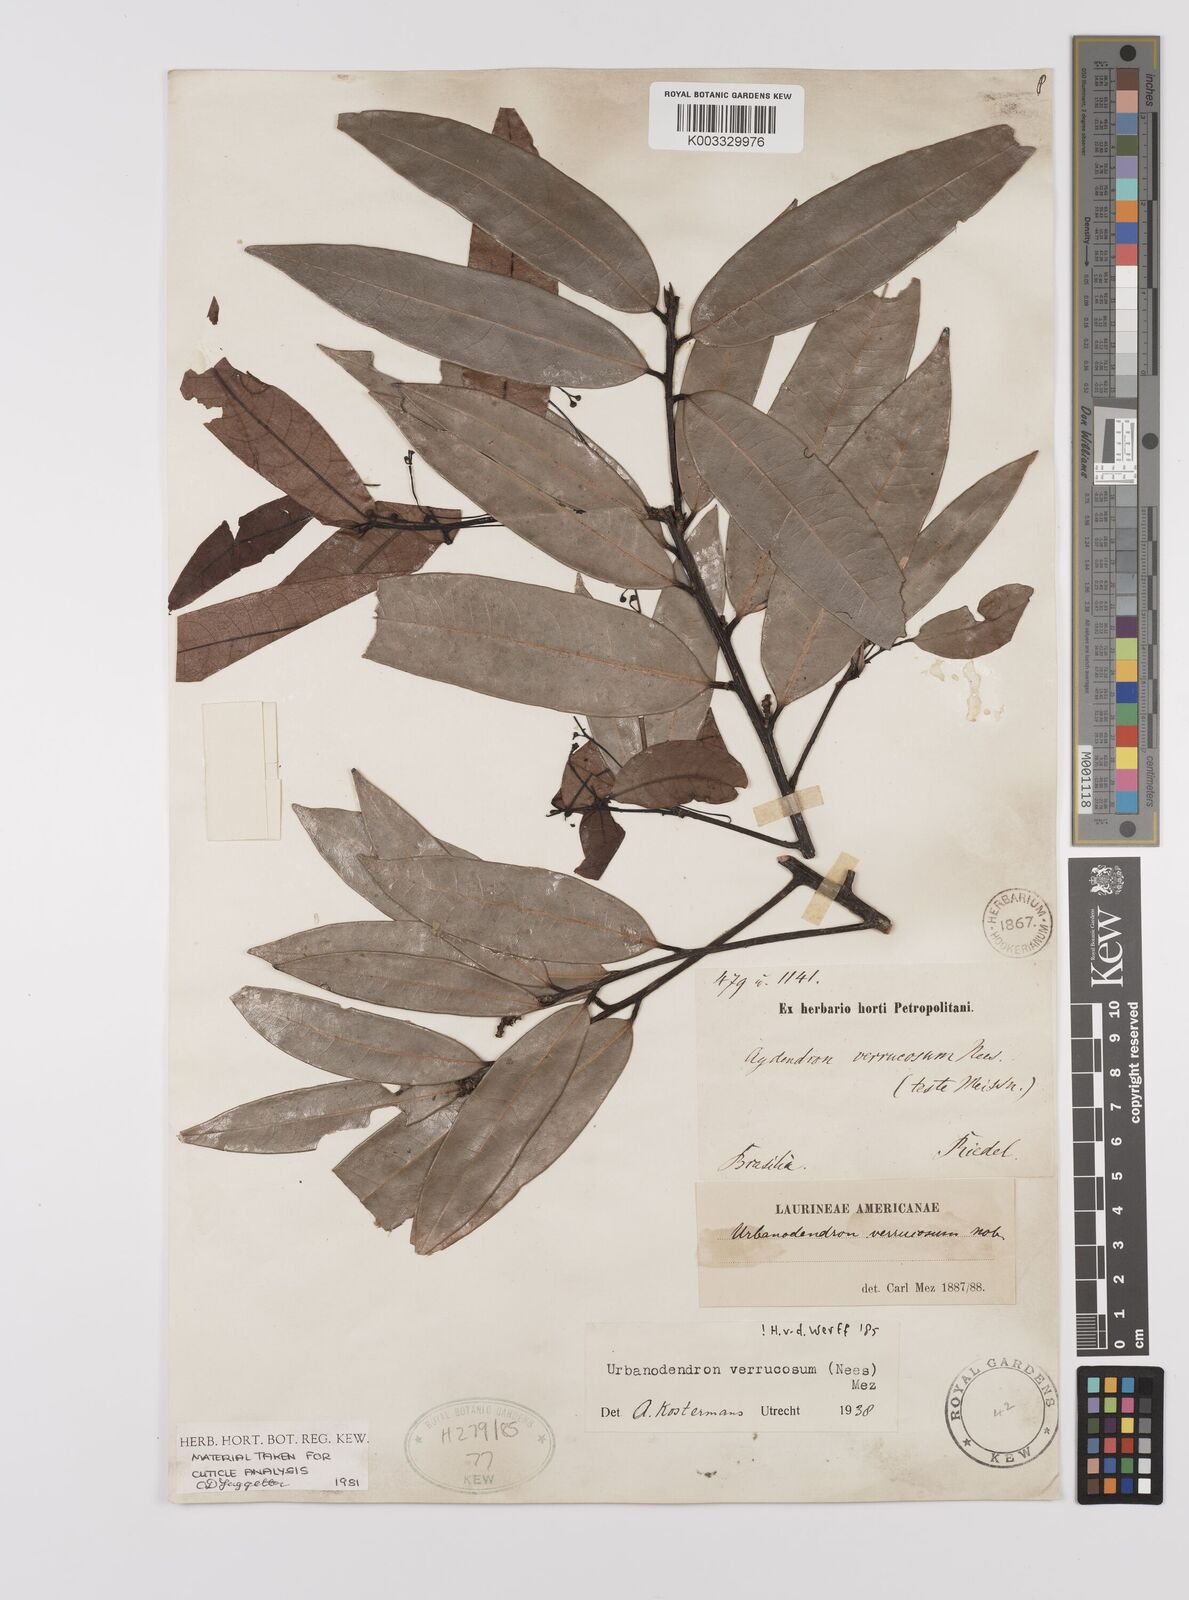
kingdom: Plantae
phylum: Tracheophyta
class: Magnoliopsida
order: Laurales
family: Lauraceae
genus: Urbanodendron
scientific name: Urbanodendron verrucosum
